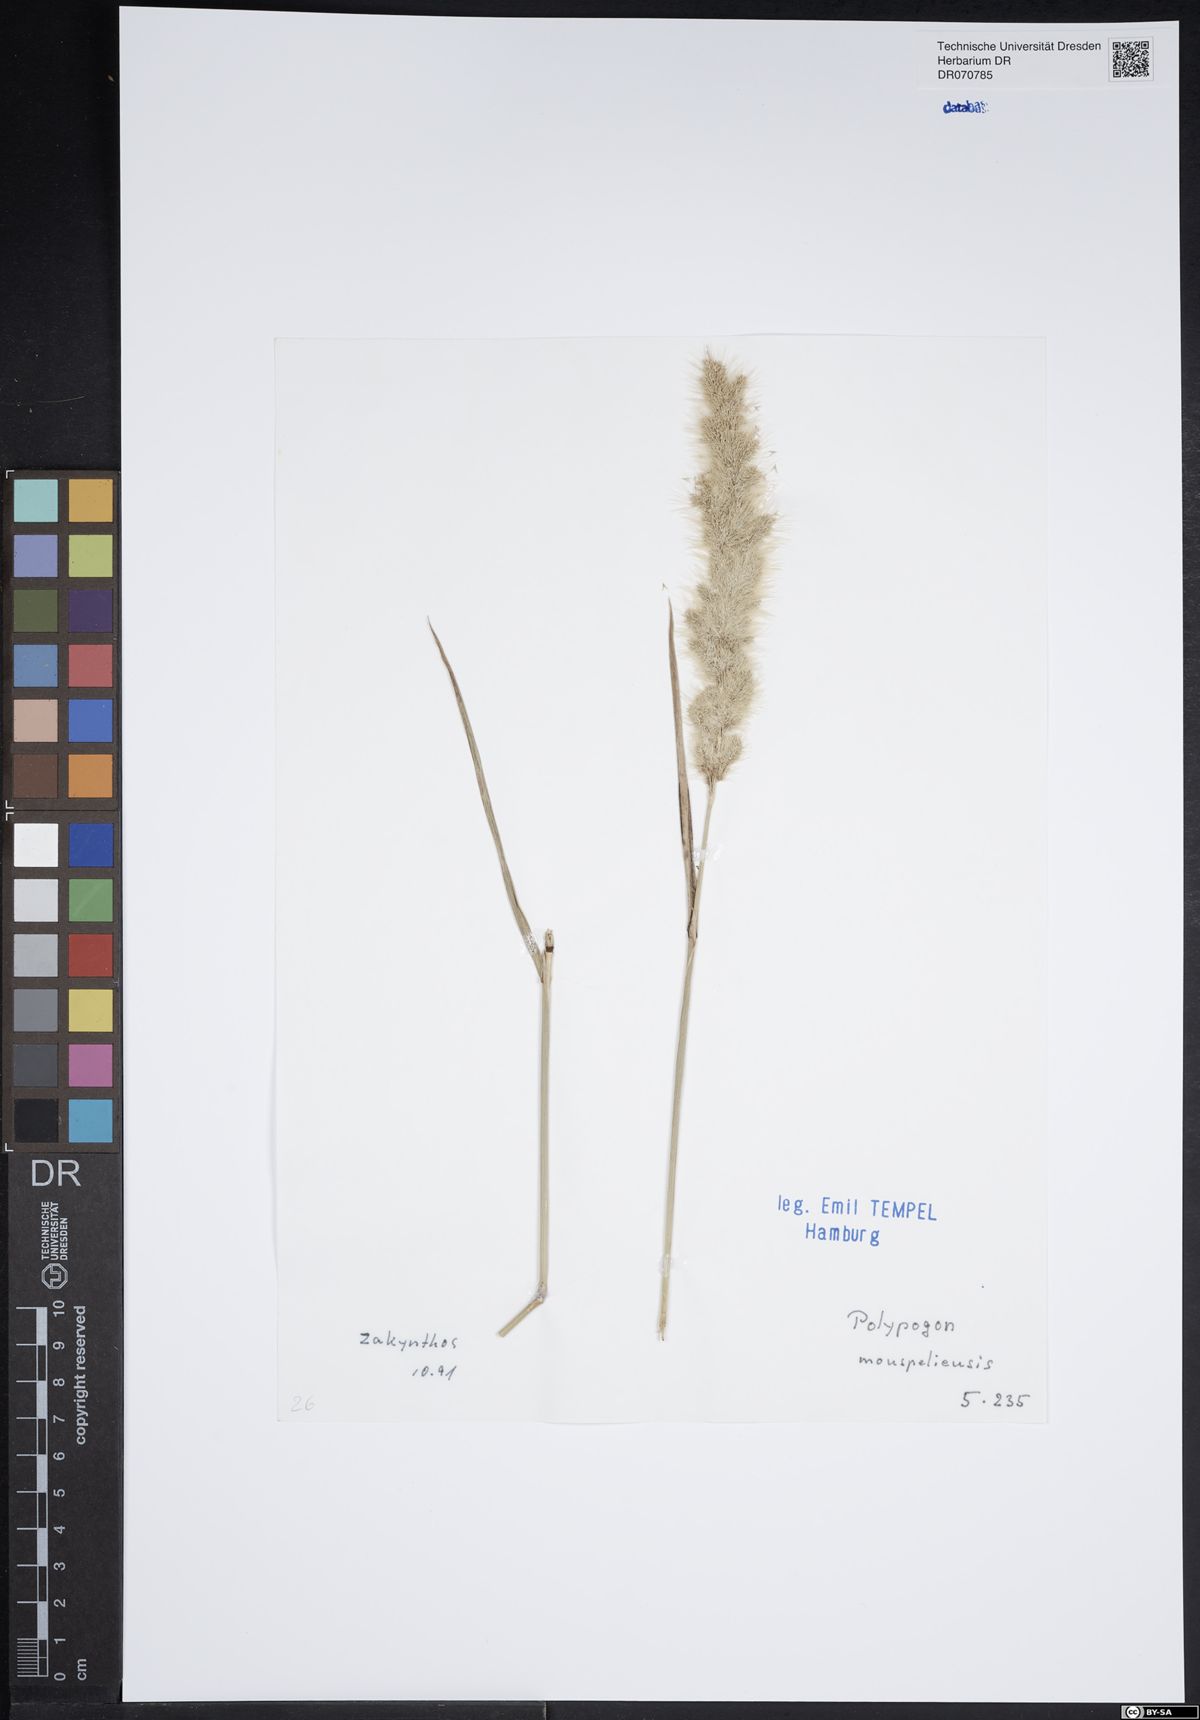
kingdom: Plantae
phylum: Tracheophyta
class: Liliopsida
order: Poales
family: Poaceae
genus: Polypogon
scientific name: Polypogon monspeliensis
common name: Annual rabbitsfoot grass
